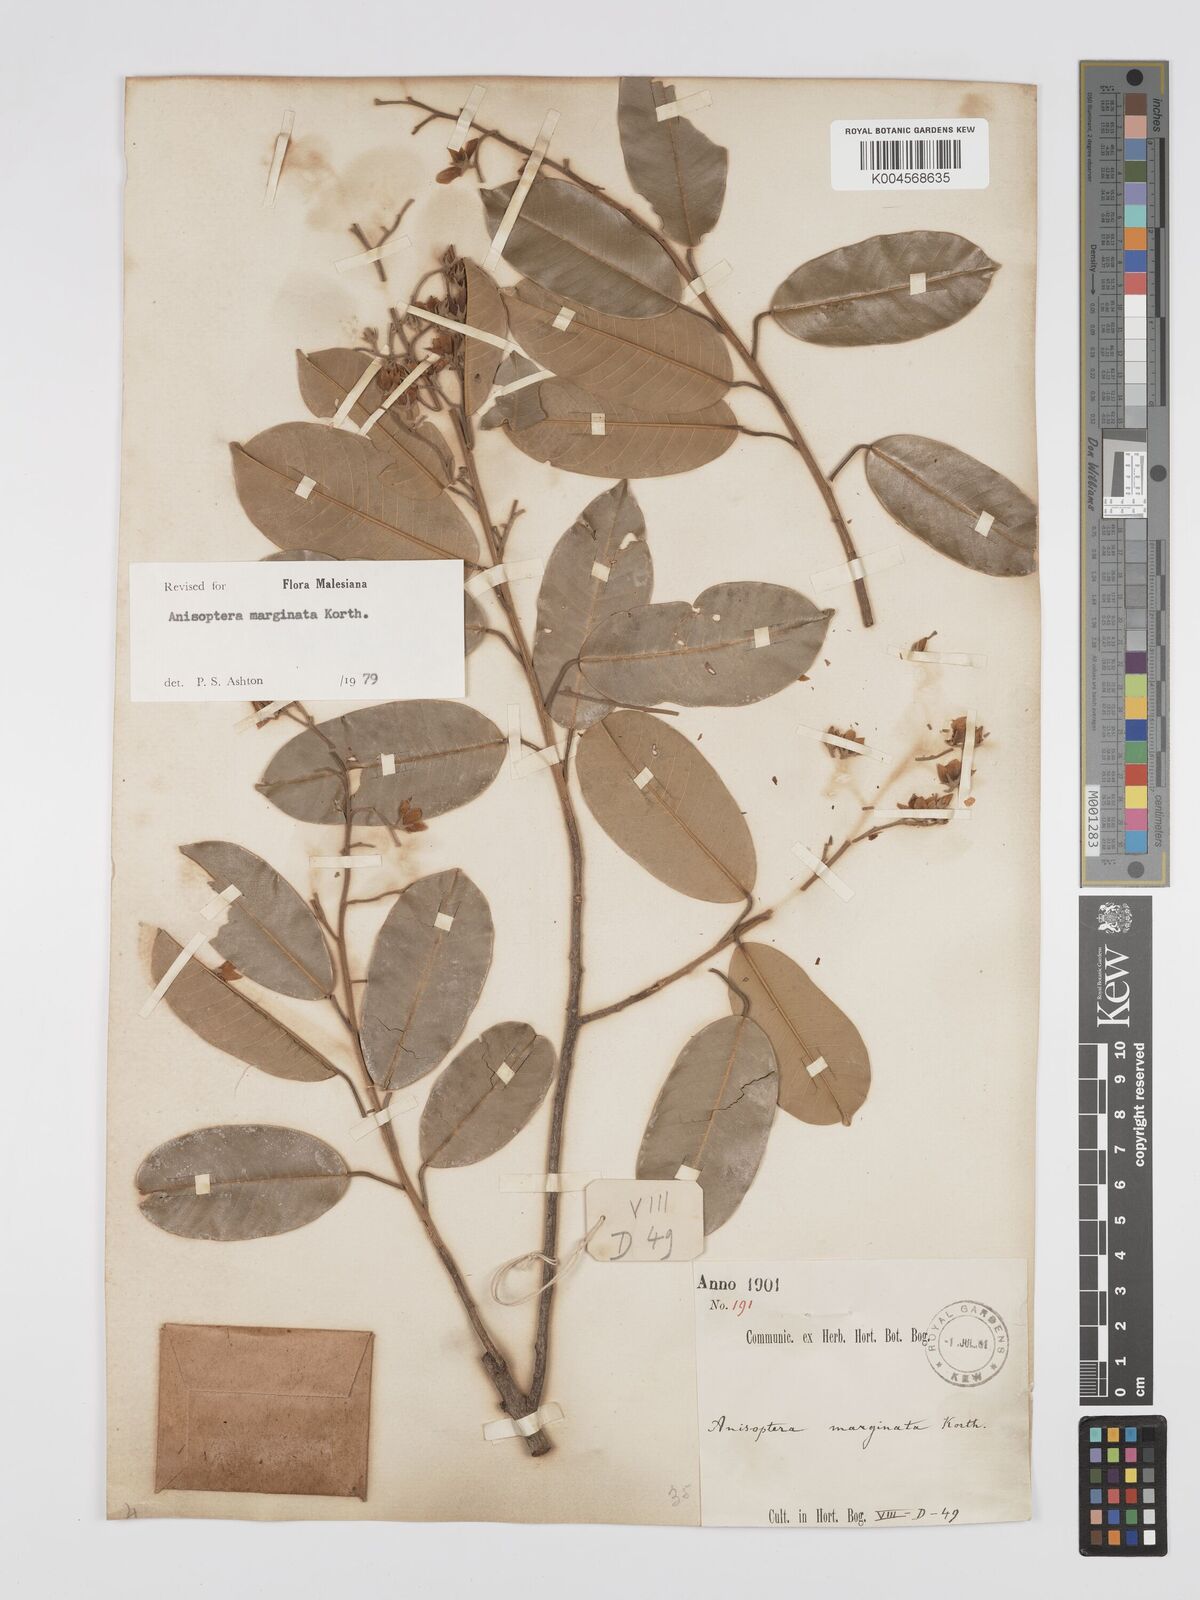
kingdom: Plantae
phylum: Tracheophyta
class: Magnoliopsida
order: Malvales
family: Dipterocarpaceae
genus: Anisoptera
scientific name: Anisoptera marginata
